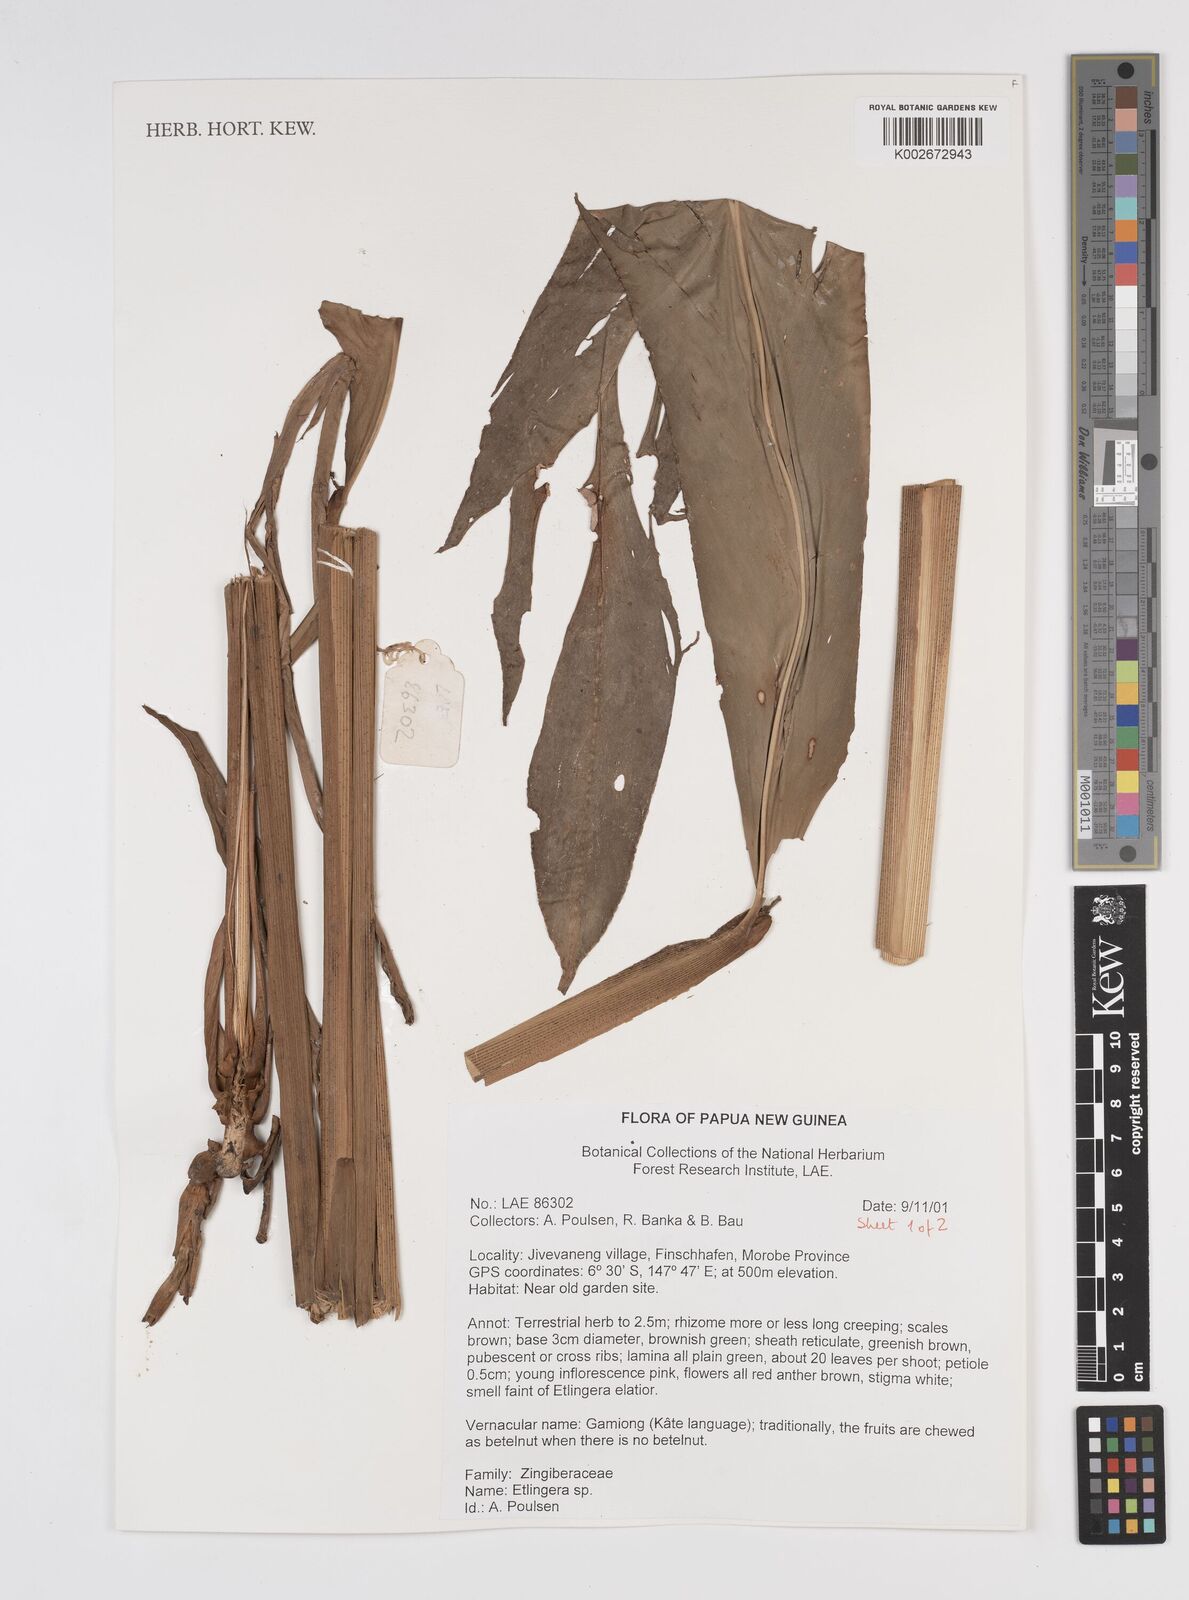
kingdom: Plantae
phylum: Tracheophyta
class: Liliopsida
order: Zingiberales
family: Zingiberaceae
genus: Etlingera
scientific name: Etlingera
